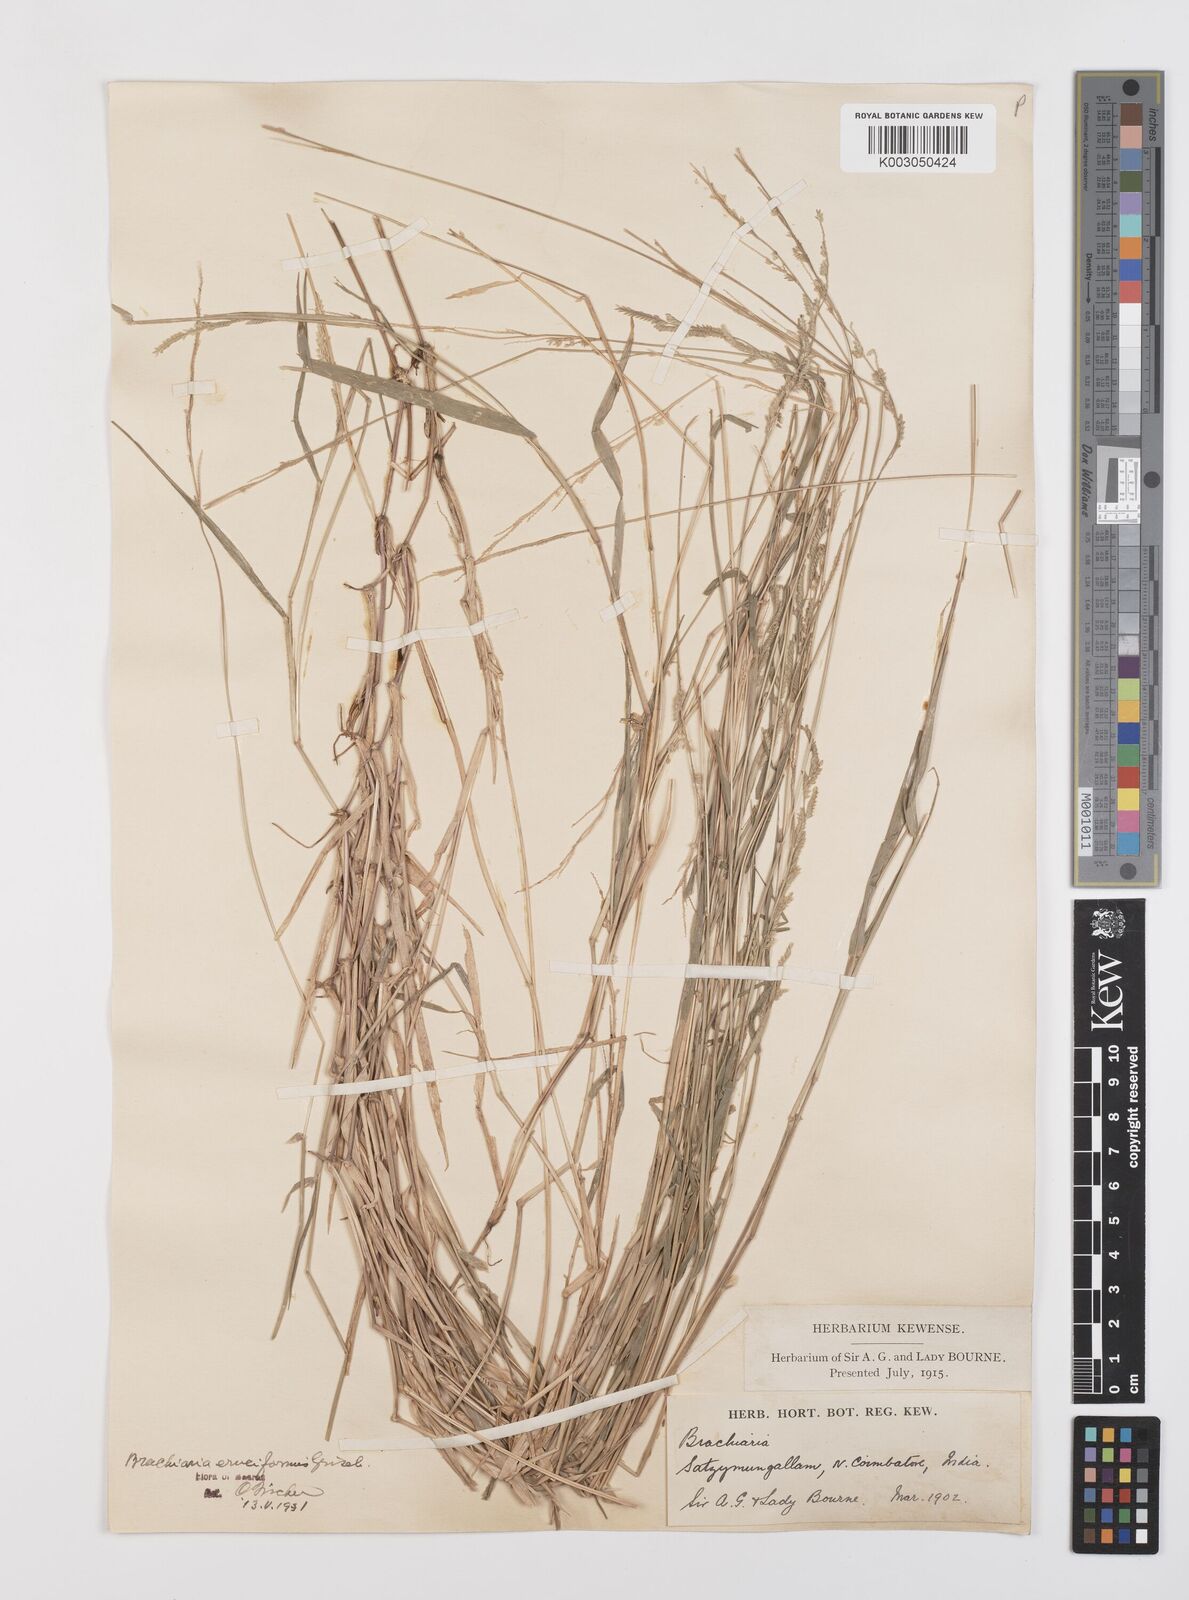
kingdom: Plantae
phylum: Tracheophyta
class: Liliopsida
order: Poales
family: Poaceae
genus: Moorochloa
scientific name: Moorochloa eruciformis
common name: Sweet signalgrass
